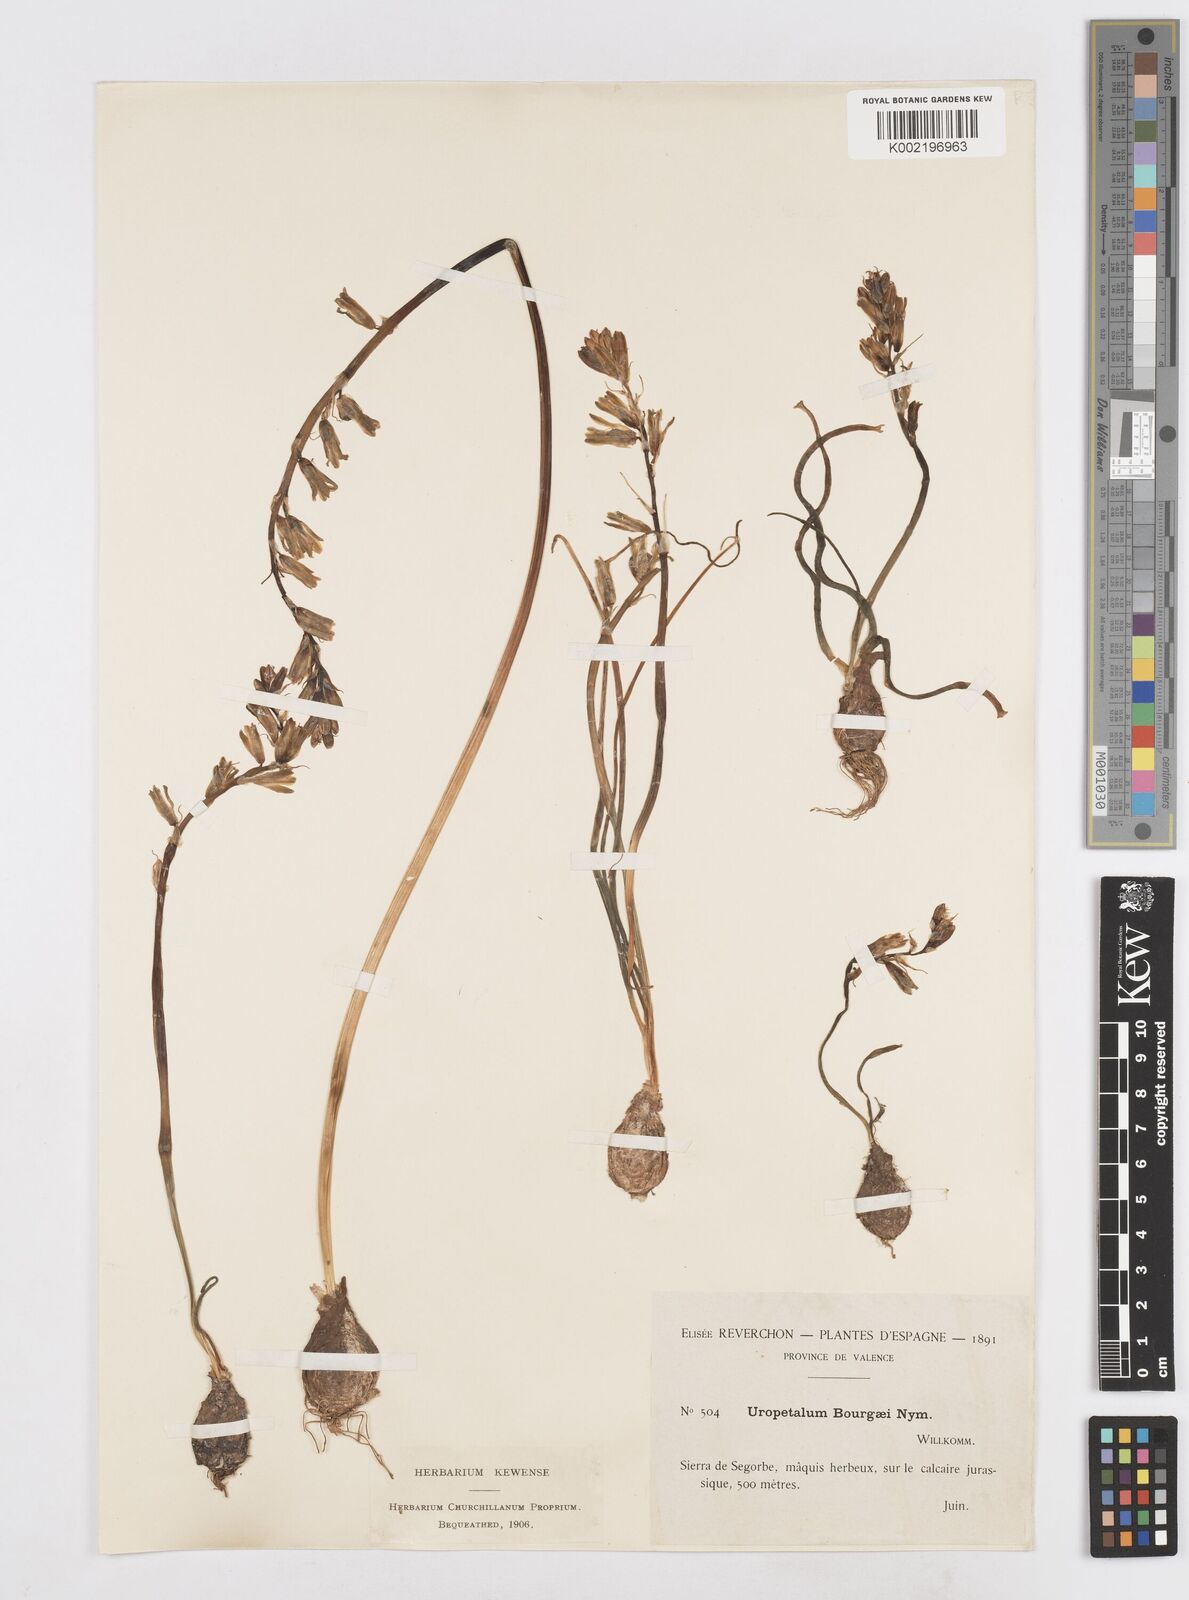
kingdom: Plantae
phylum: Tracheophyta
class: Liliopsida
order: Asparagales
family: Asparagaceae
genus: Dipcadi
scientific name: Dipcadi
